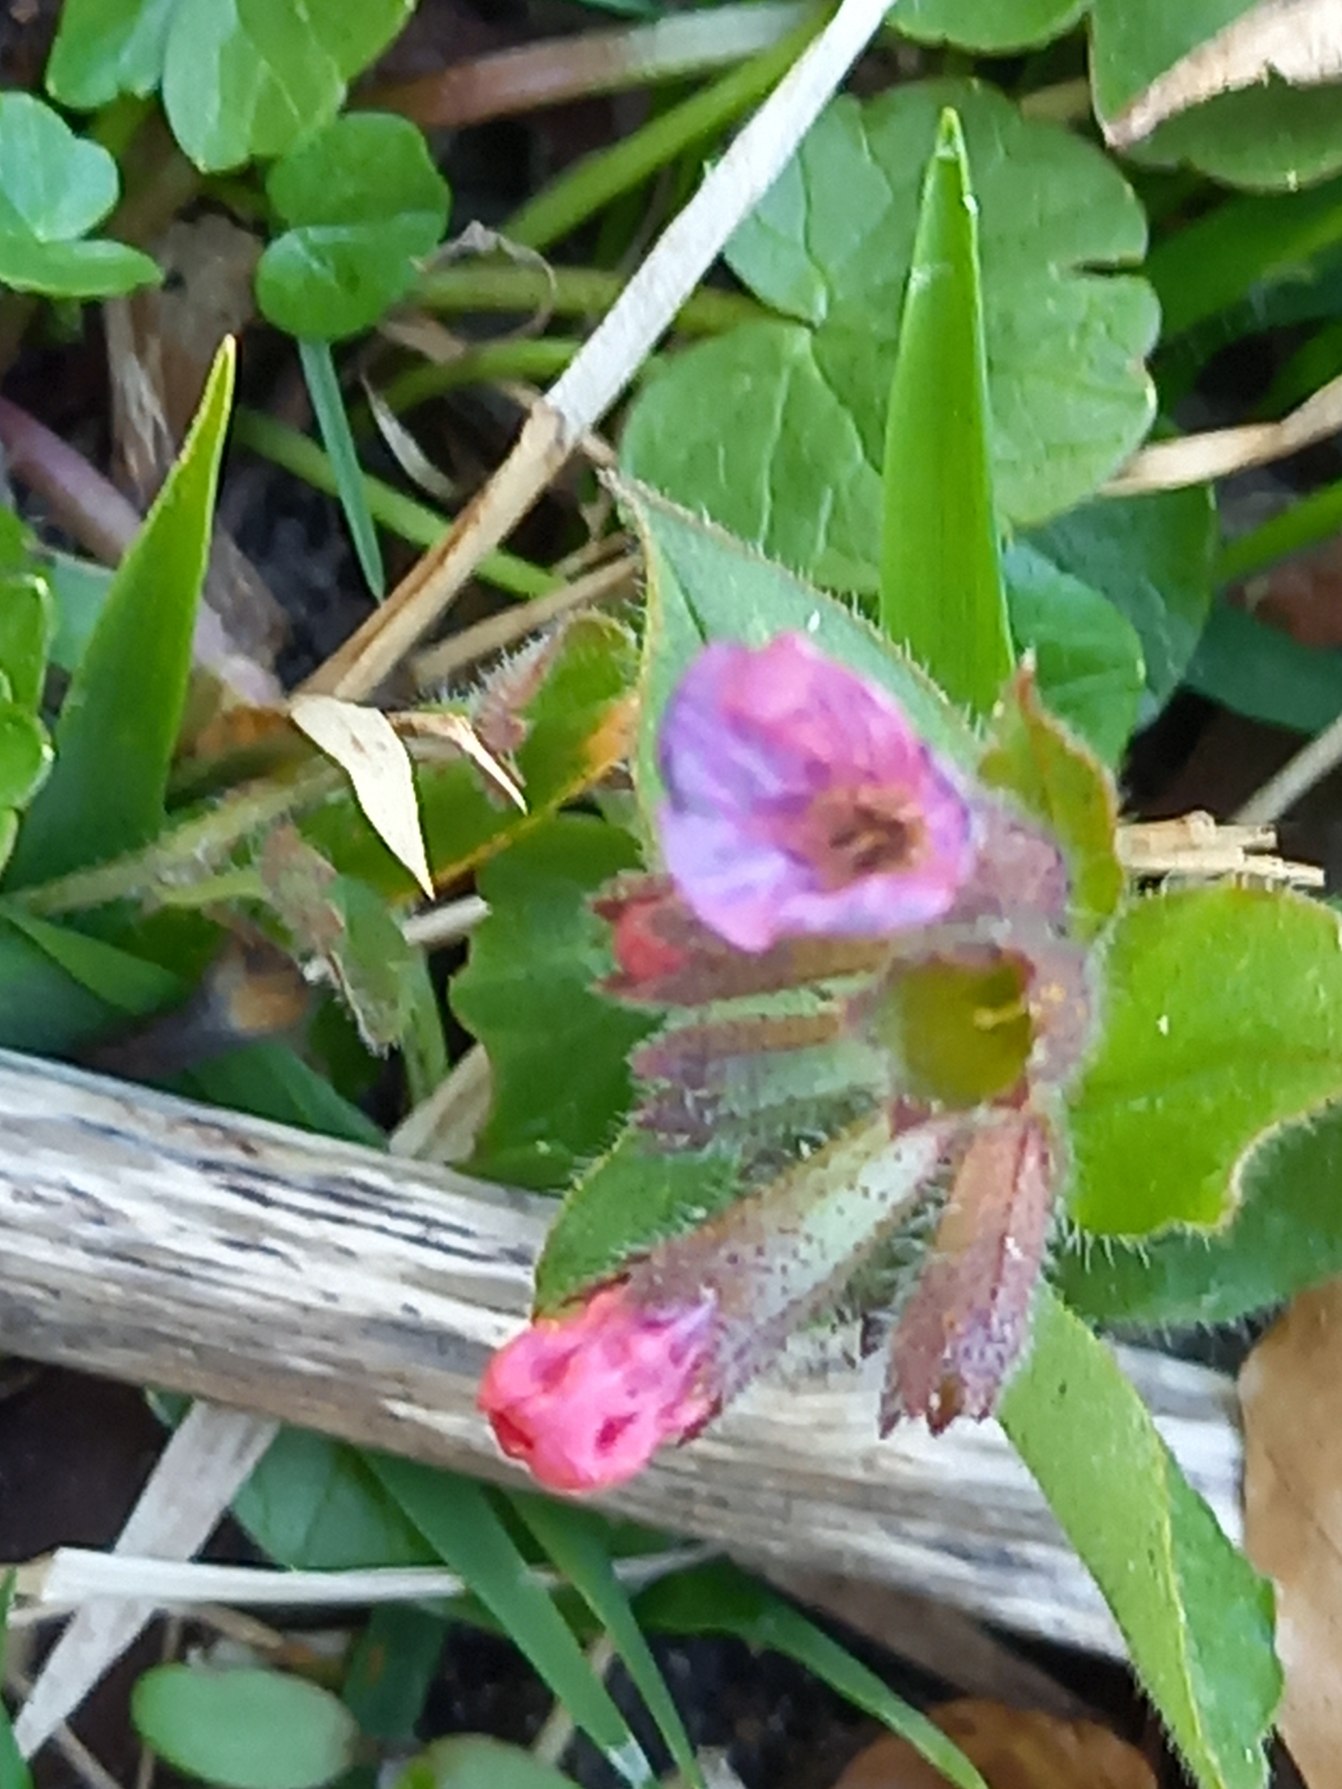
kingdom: Plantae
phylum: Tracheophyta
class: Magnoliopsida
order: Boraginales
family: Boraginaceae
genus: Pulmonaria
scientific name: Pulmonaria obscura
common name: Almindelig lungeurt
